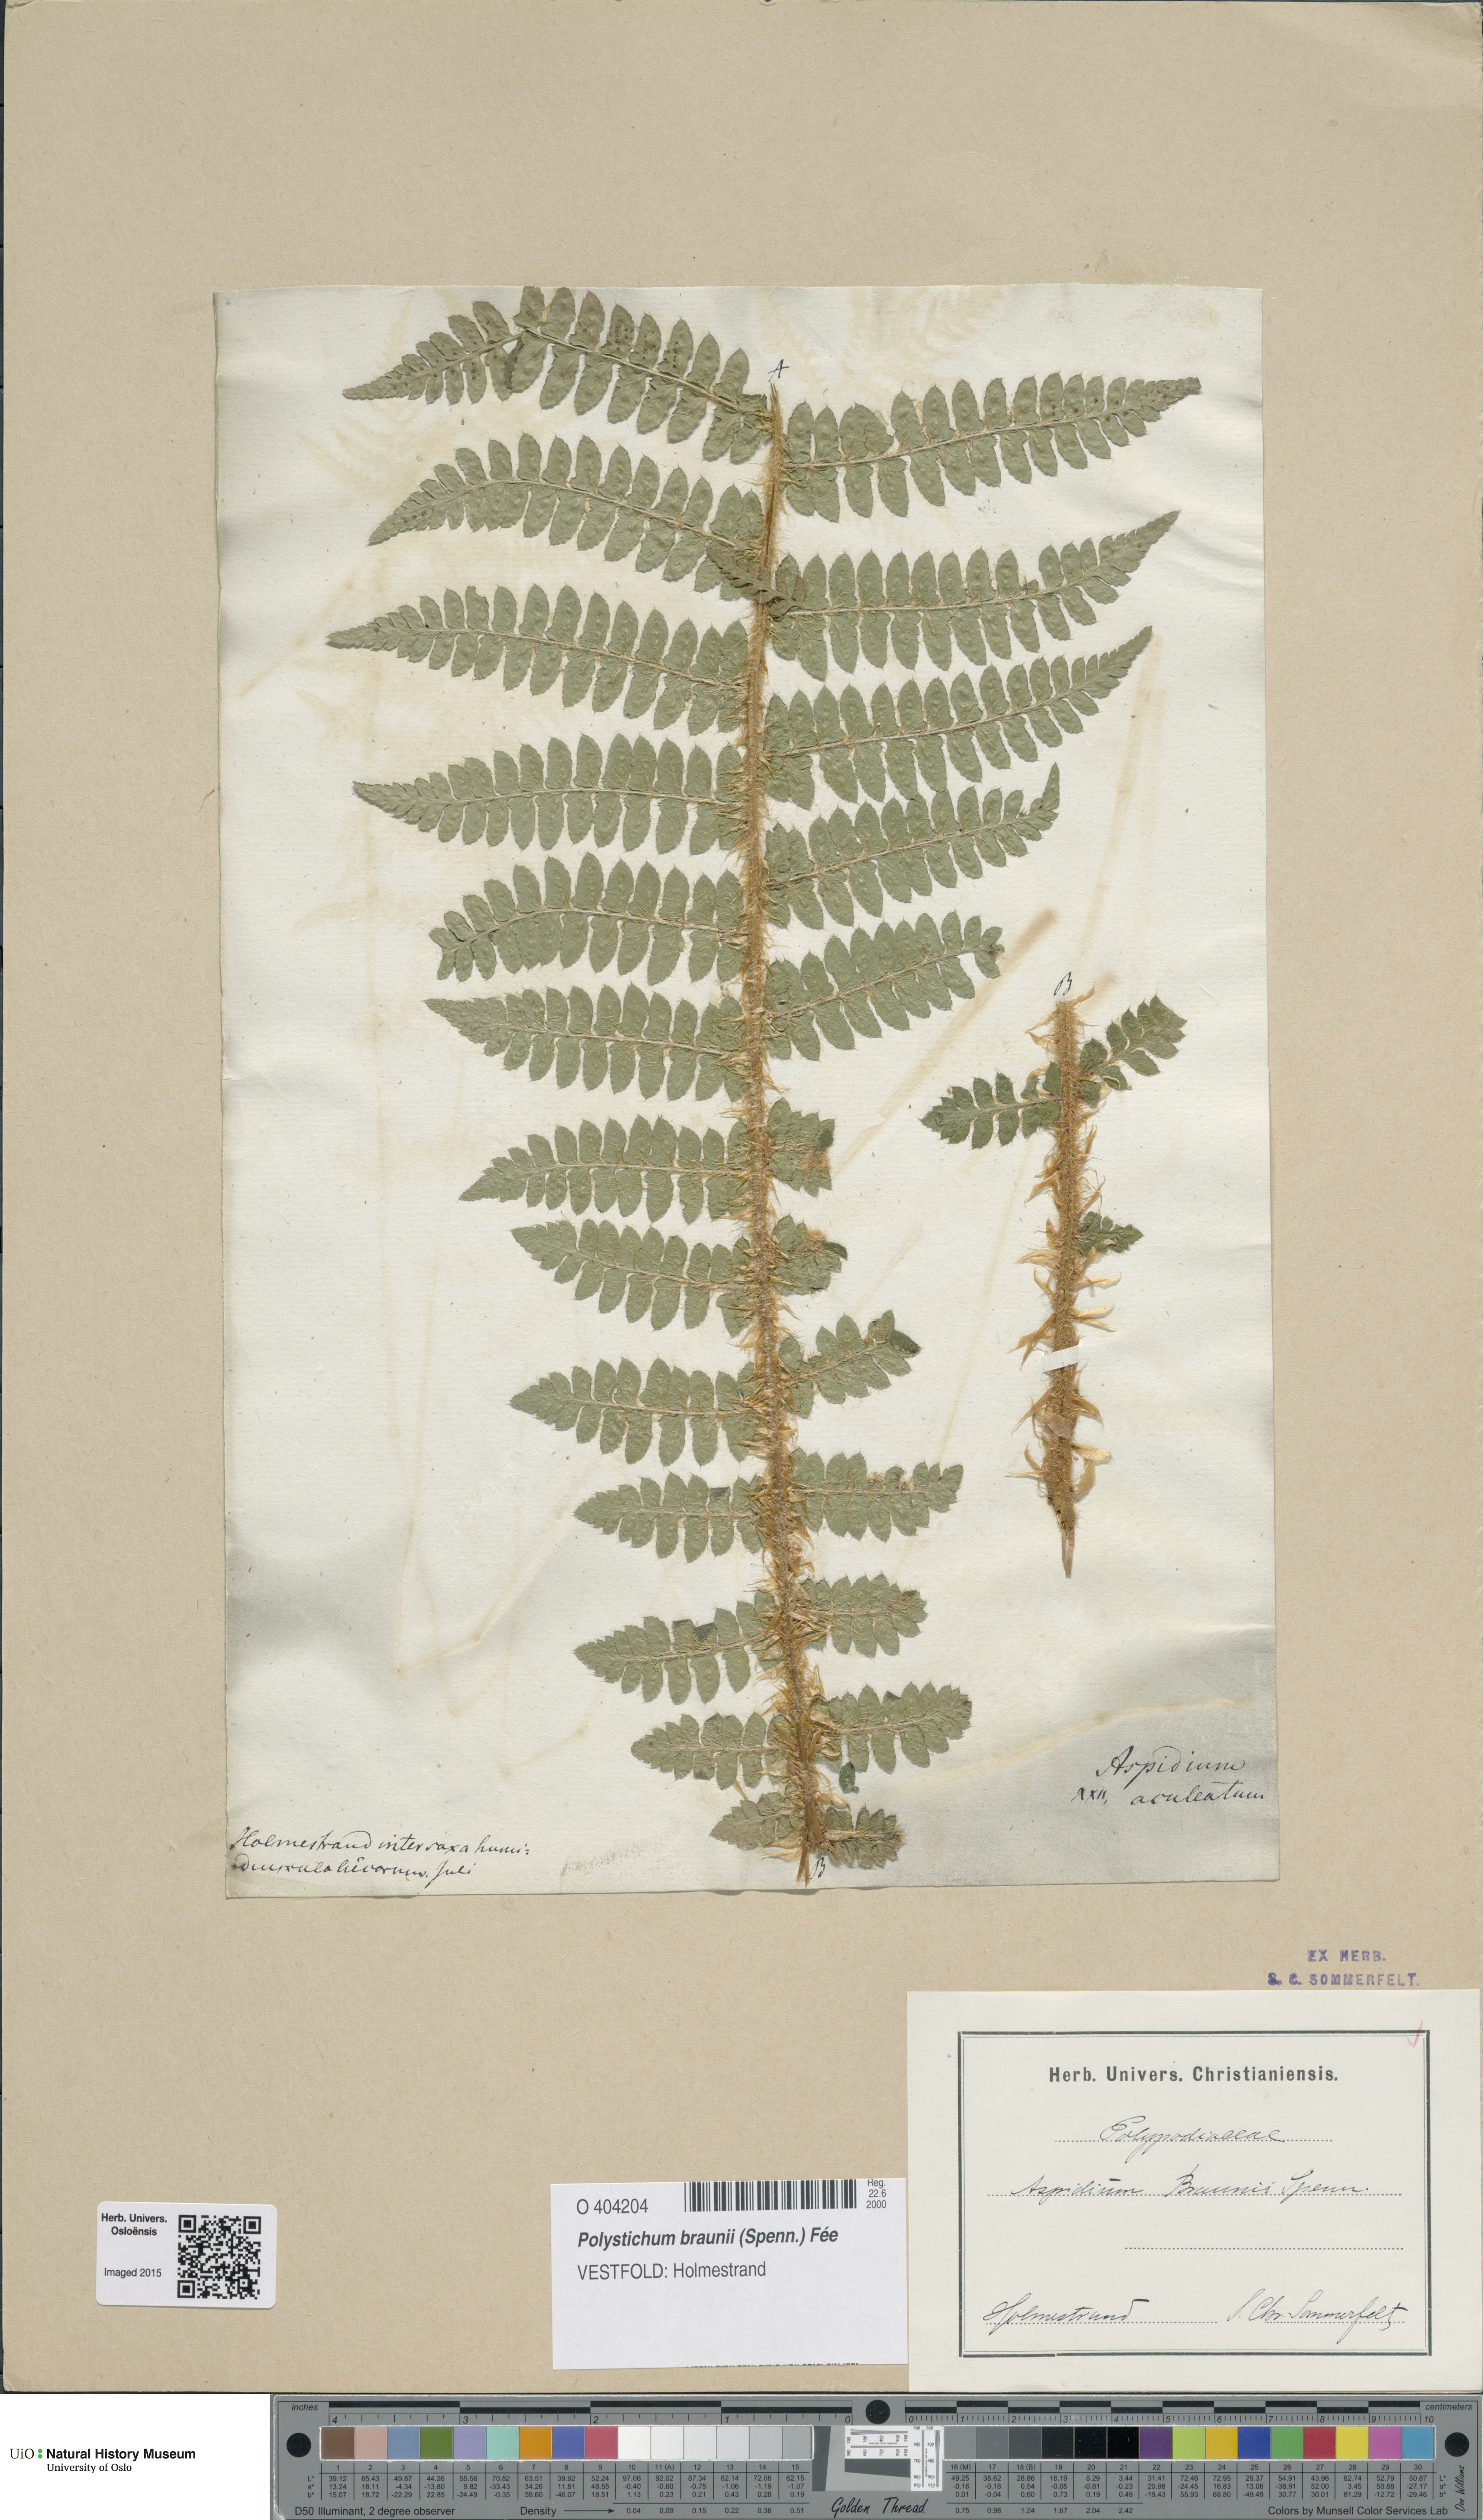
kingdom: Plantae
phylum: Tracheophyta
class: Polypodiopsida
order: Polypodiales
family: Dryopteridaceae
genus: Polystichum
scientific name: Polystichum braunii
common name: Braun's holly fern
